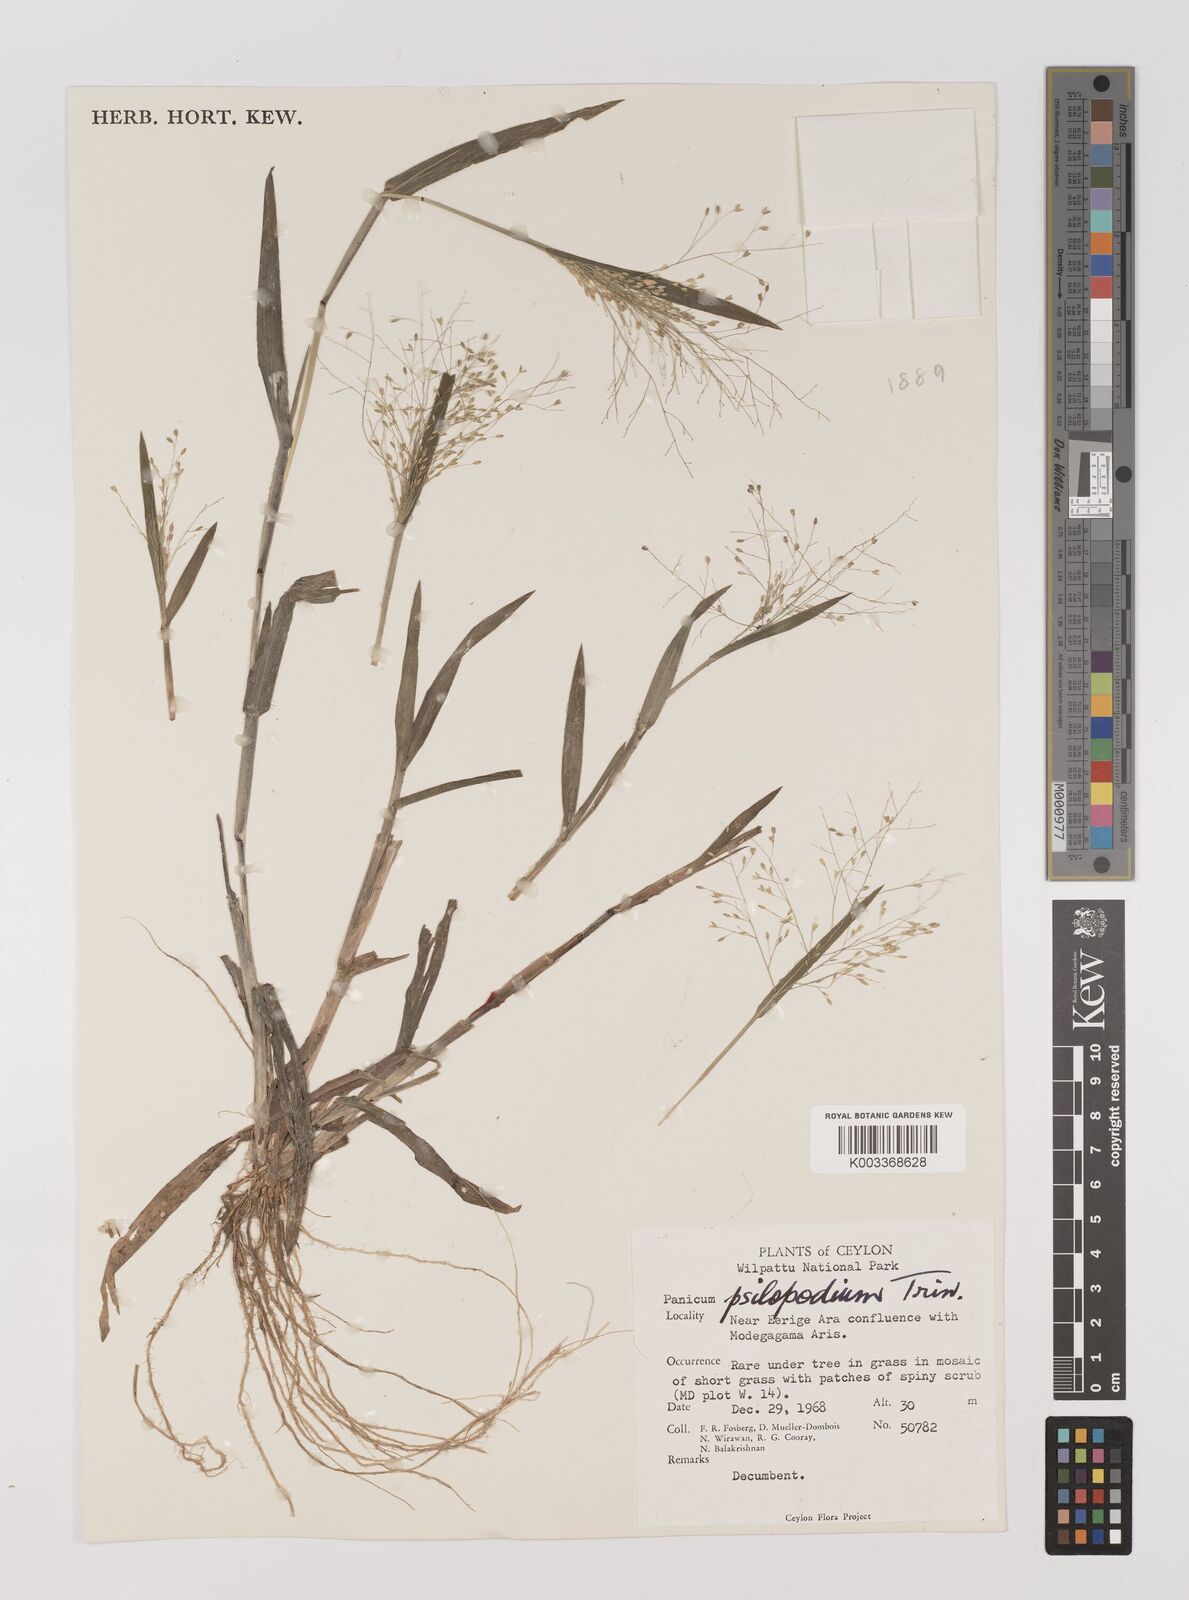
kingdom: Plantae
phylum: Tracheophyta
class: Liliopsida
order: Poales
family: Poaceae
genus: Panicum
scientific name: Panicum sumatrense
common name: Little millet
